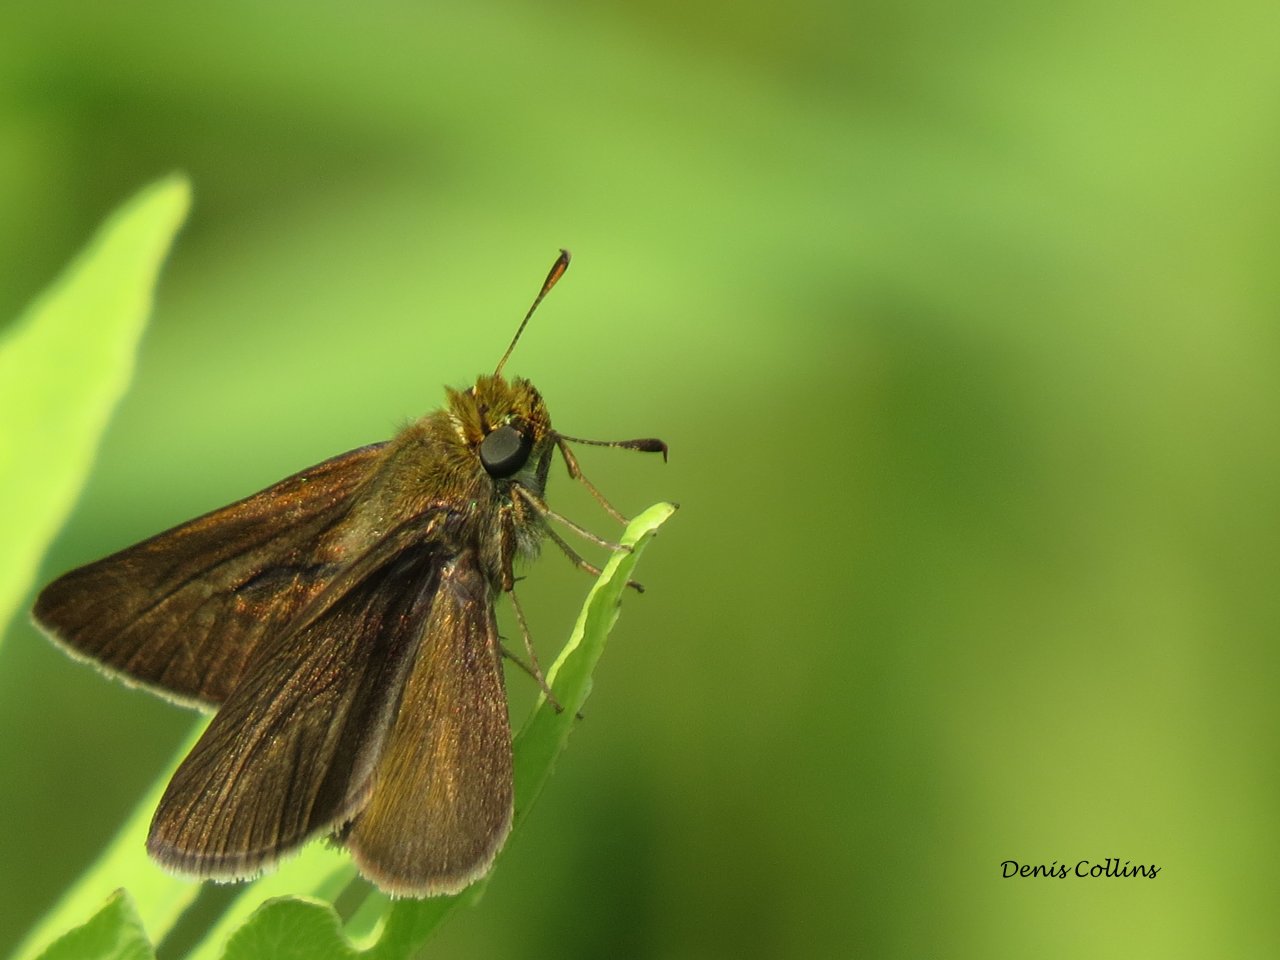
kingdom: Animalia
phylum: Arthropoda
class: Insecta
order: Lepidoptera
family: Hesperiidae
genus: Euphyes
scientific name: Euphyes vestris
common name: Dun Skipper
